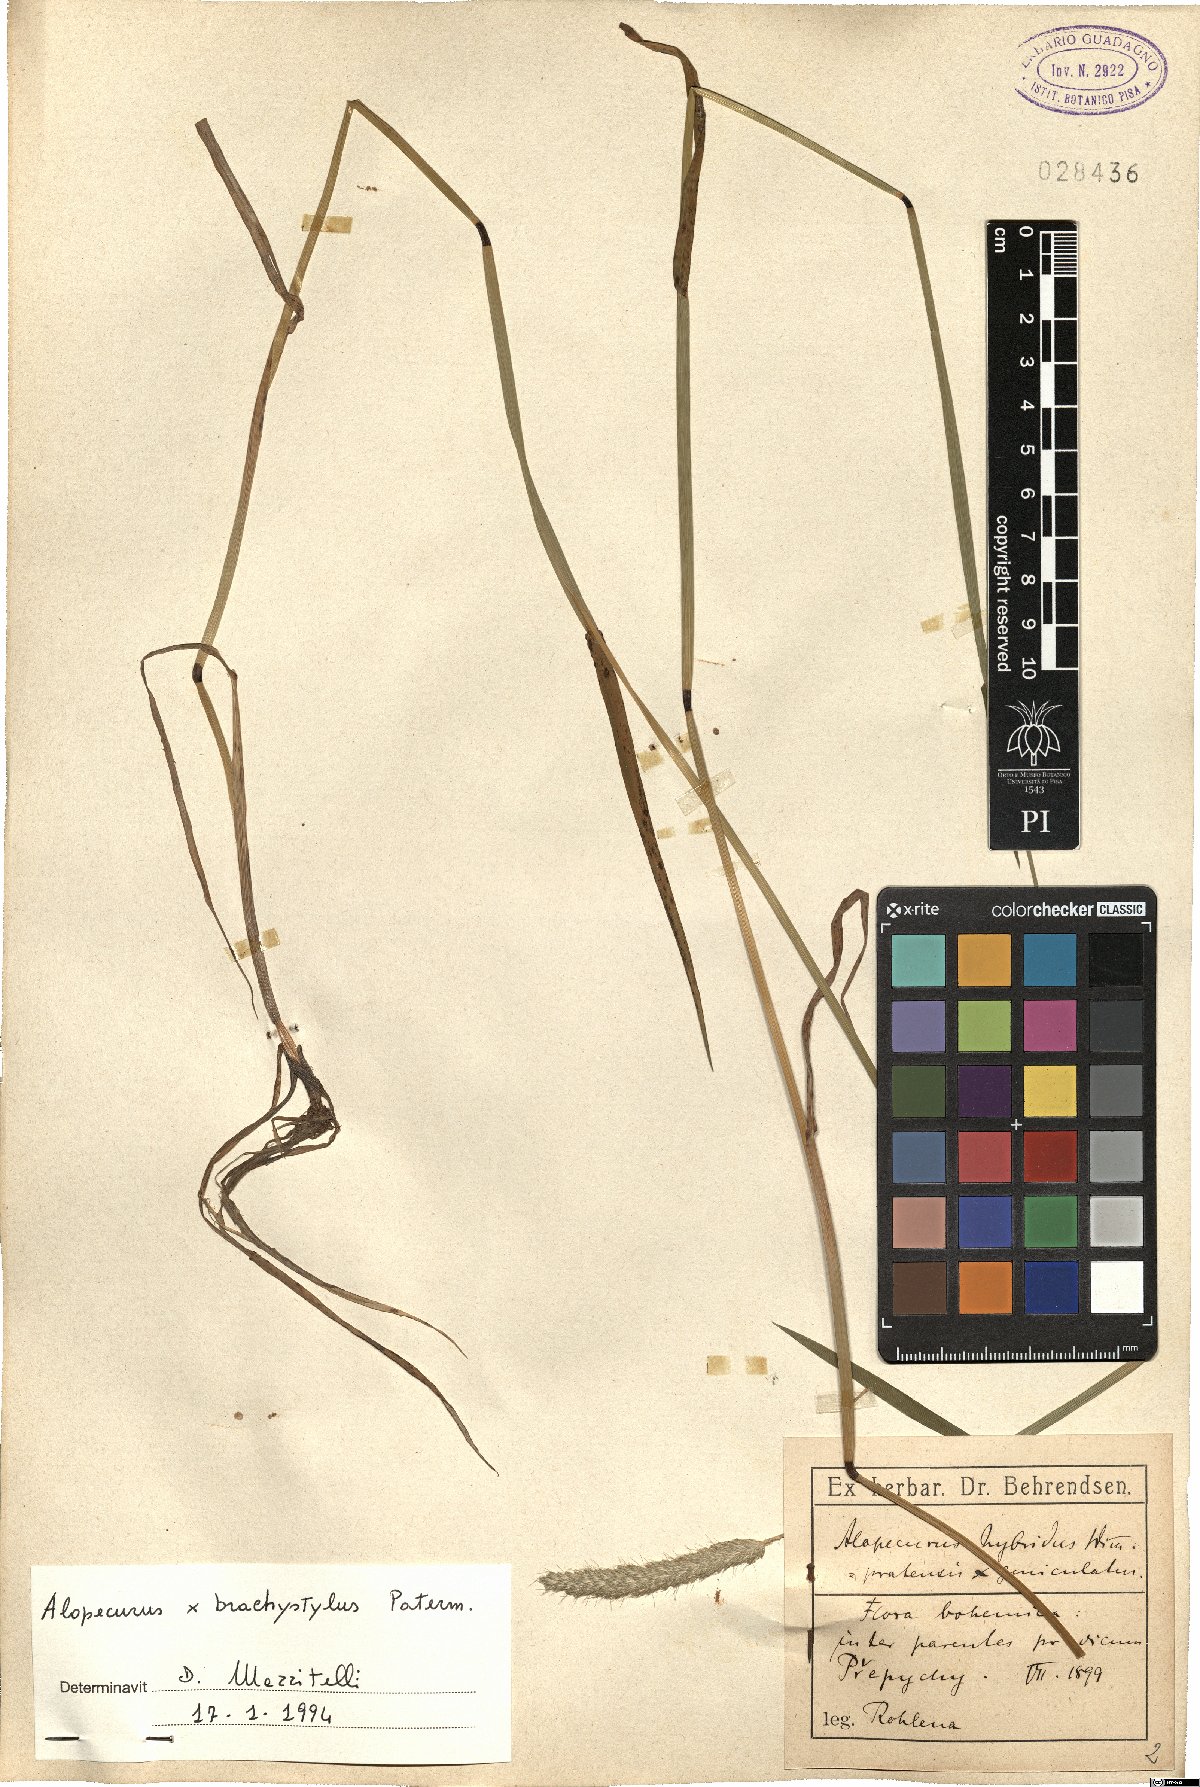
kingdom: Plantae
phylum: Tracheophyta
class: Liliopsida
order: Poales
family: Poaceae
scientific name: Poaceae
